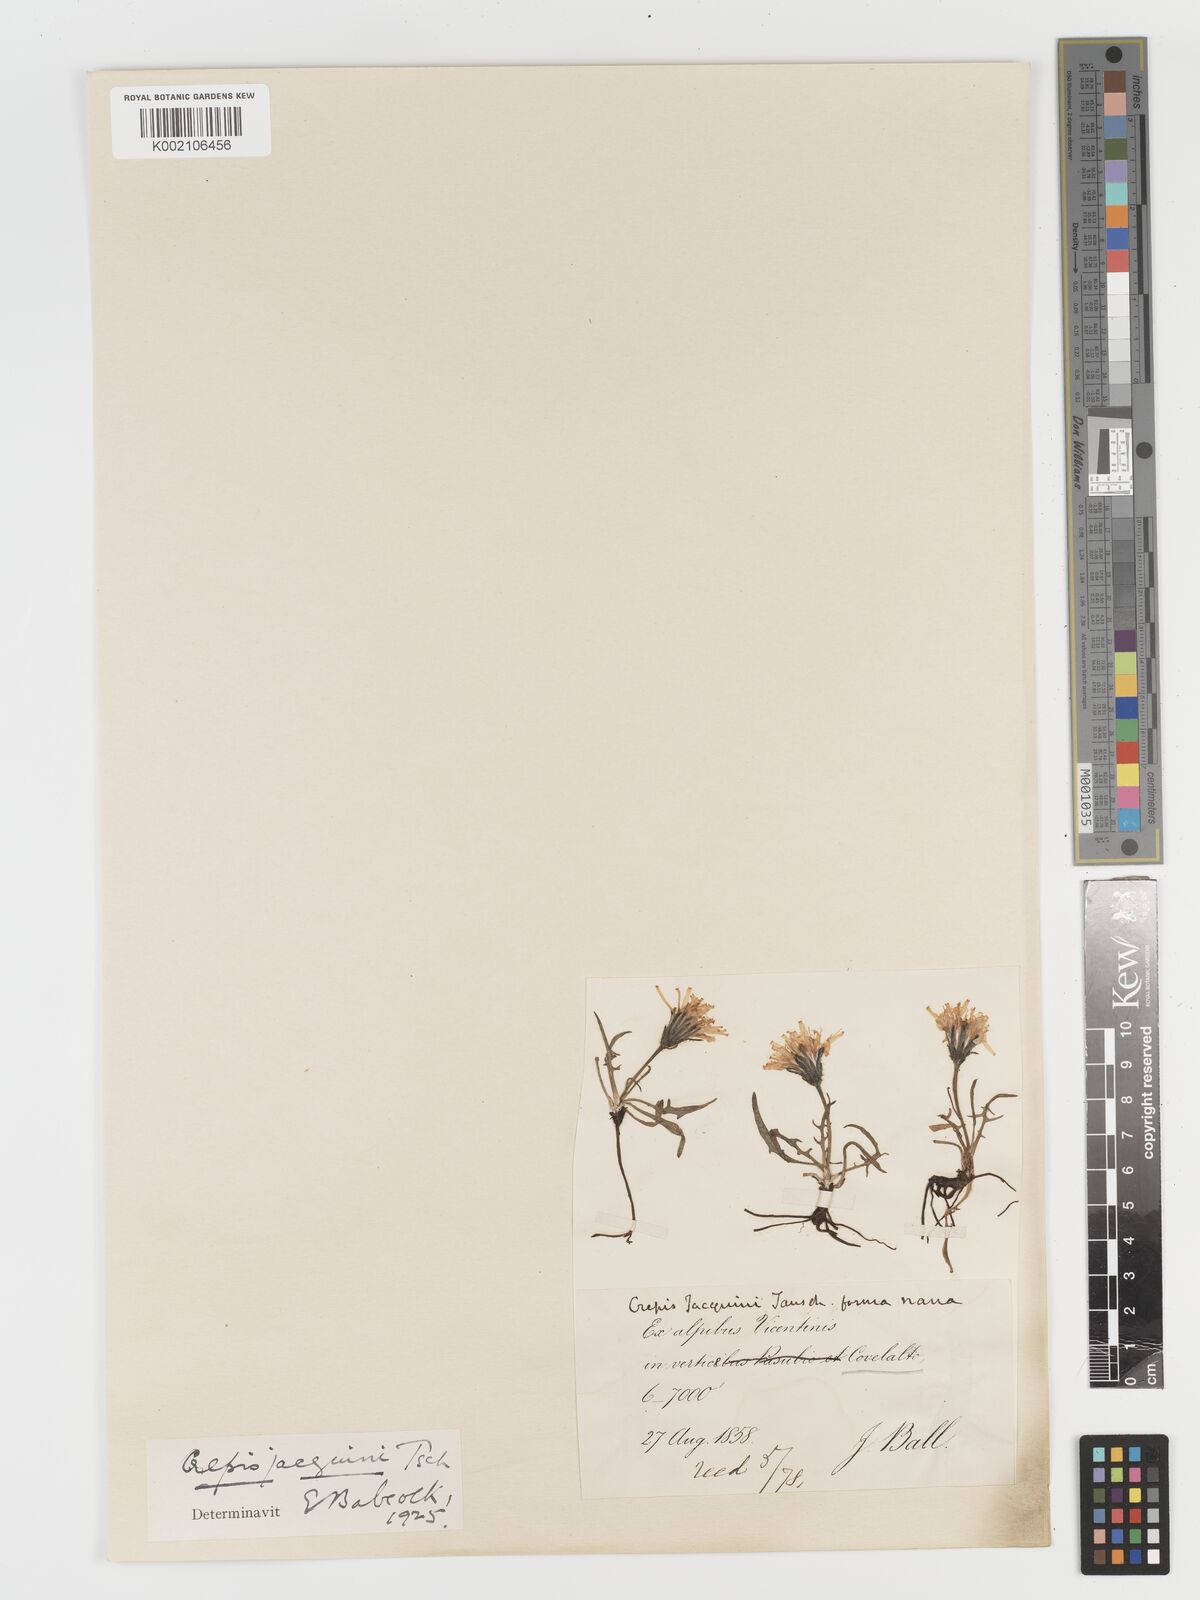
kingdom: Plantae
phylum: Tracheophyta
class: Magnoliopsida
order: Asterales
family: Asteraceae
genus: Crepis
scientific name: Crepis jacquinii
